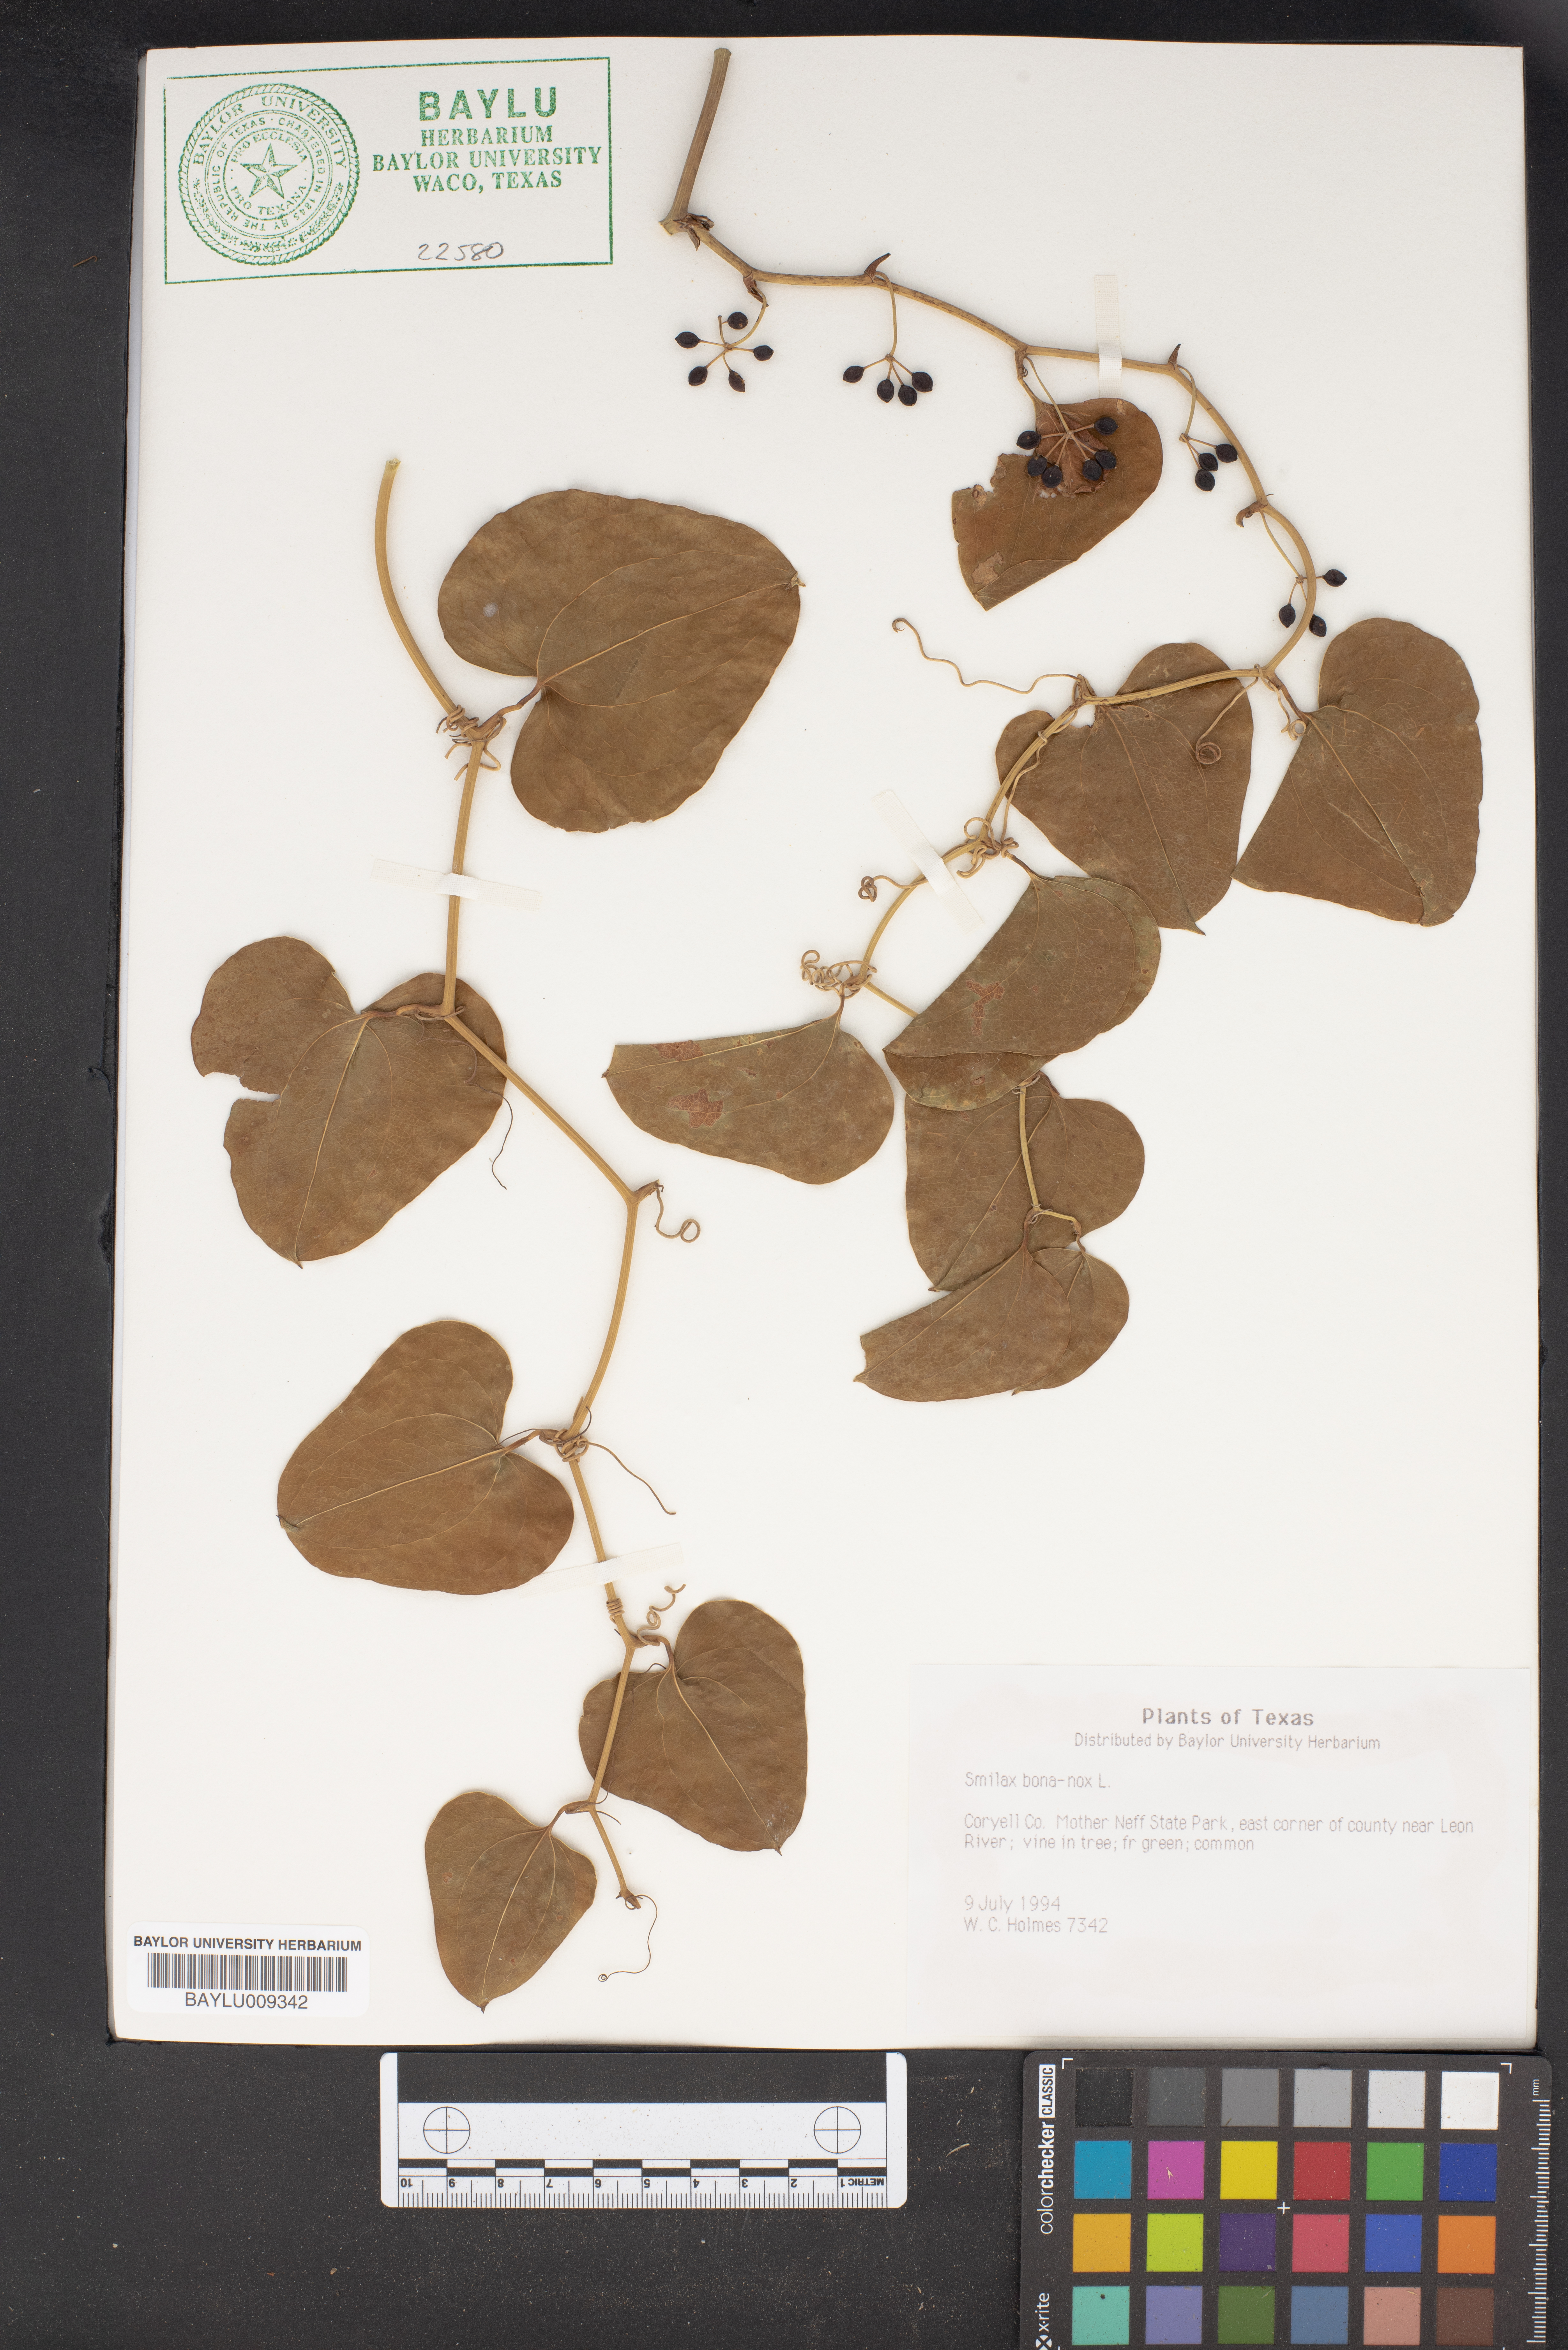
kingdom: Plantae
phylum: Tracheophyta
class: Liliopsida
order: Liliales
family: Smilacaceae
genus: Smilax
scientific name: Smilax bona-nox
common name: Catbrier
